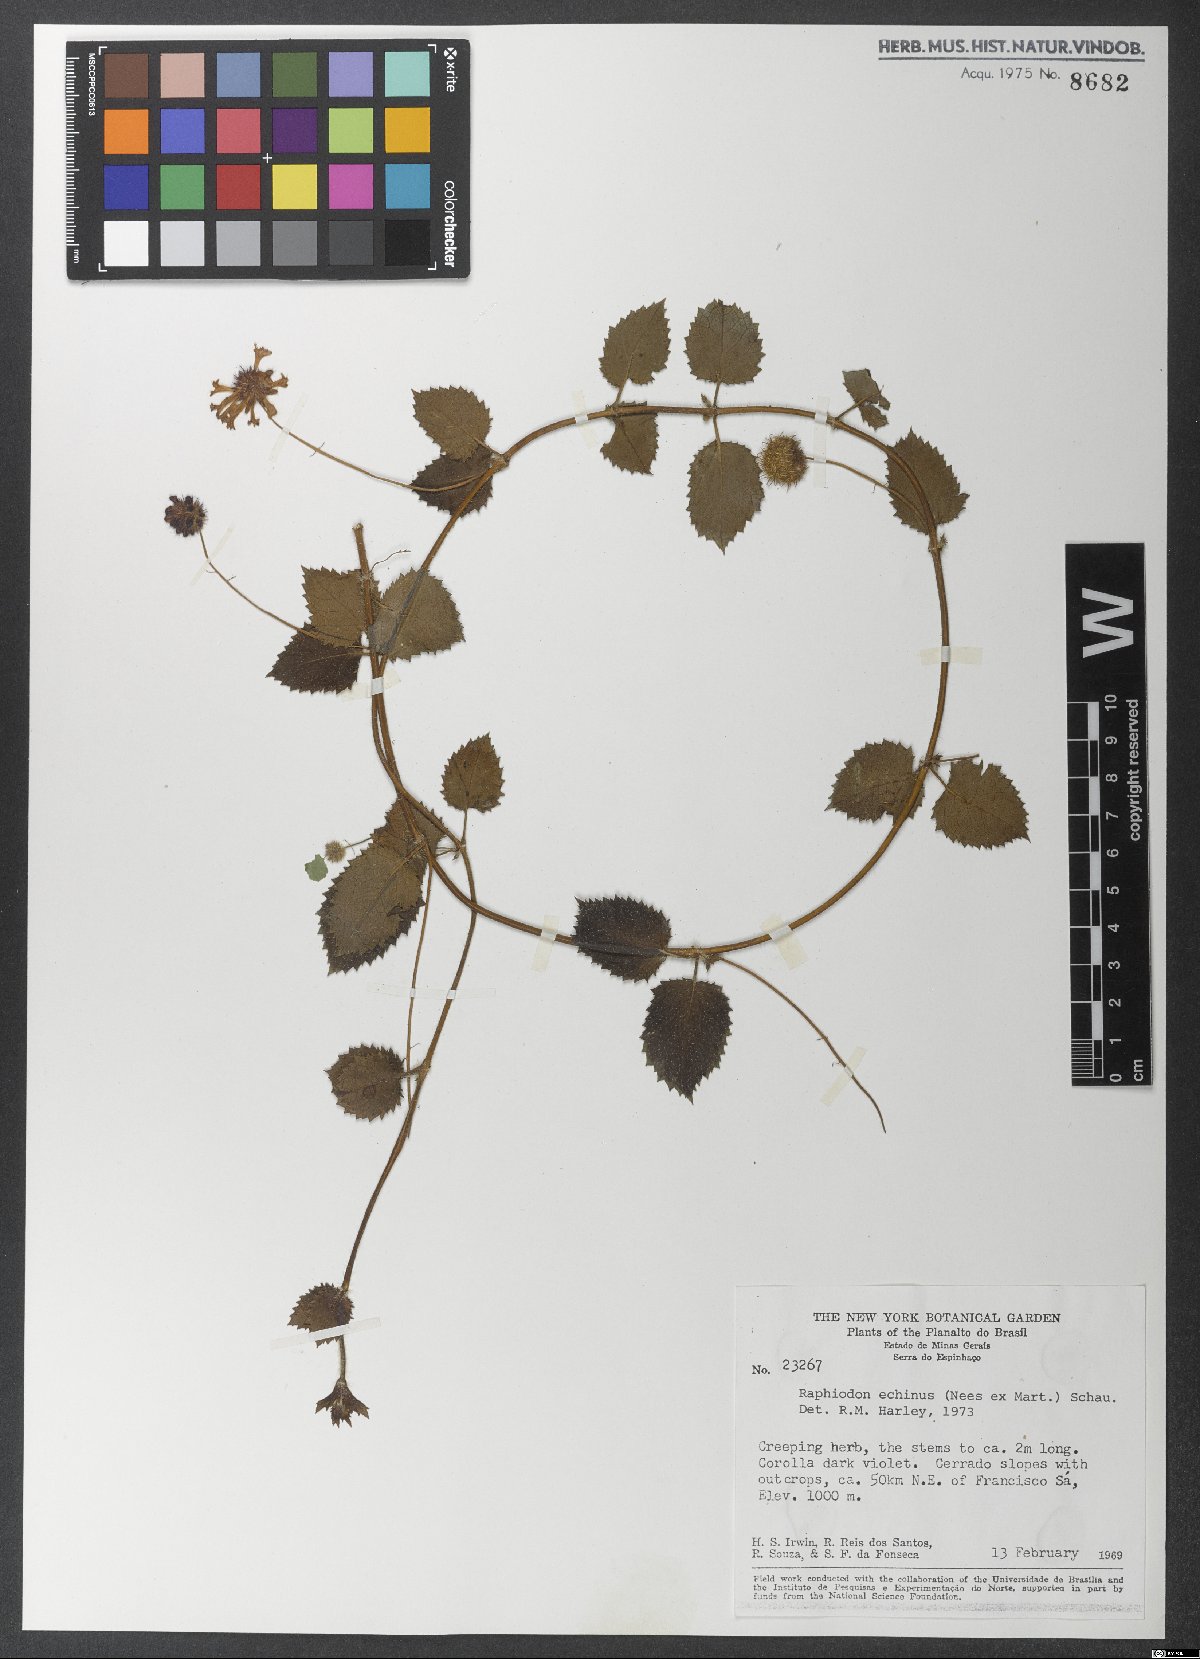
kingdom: Plantae
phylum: Tracheophyta
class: Magnoliopsida
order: Lamiales
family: Lamiaceae
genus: Rhaphiodon
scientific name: Rhaphiodon echinus
